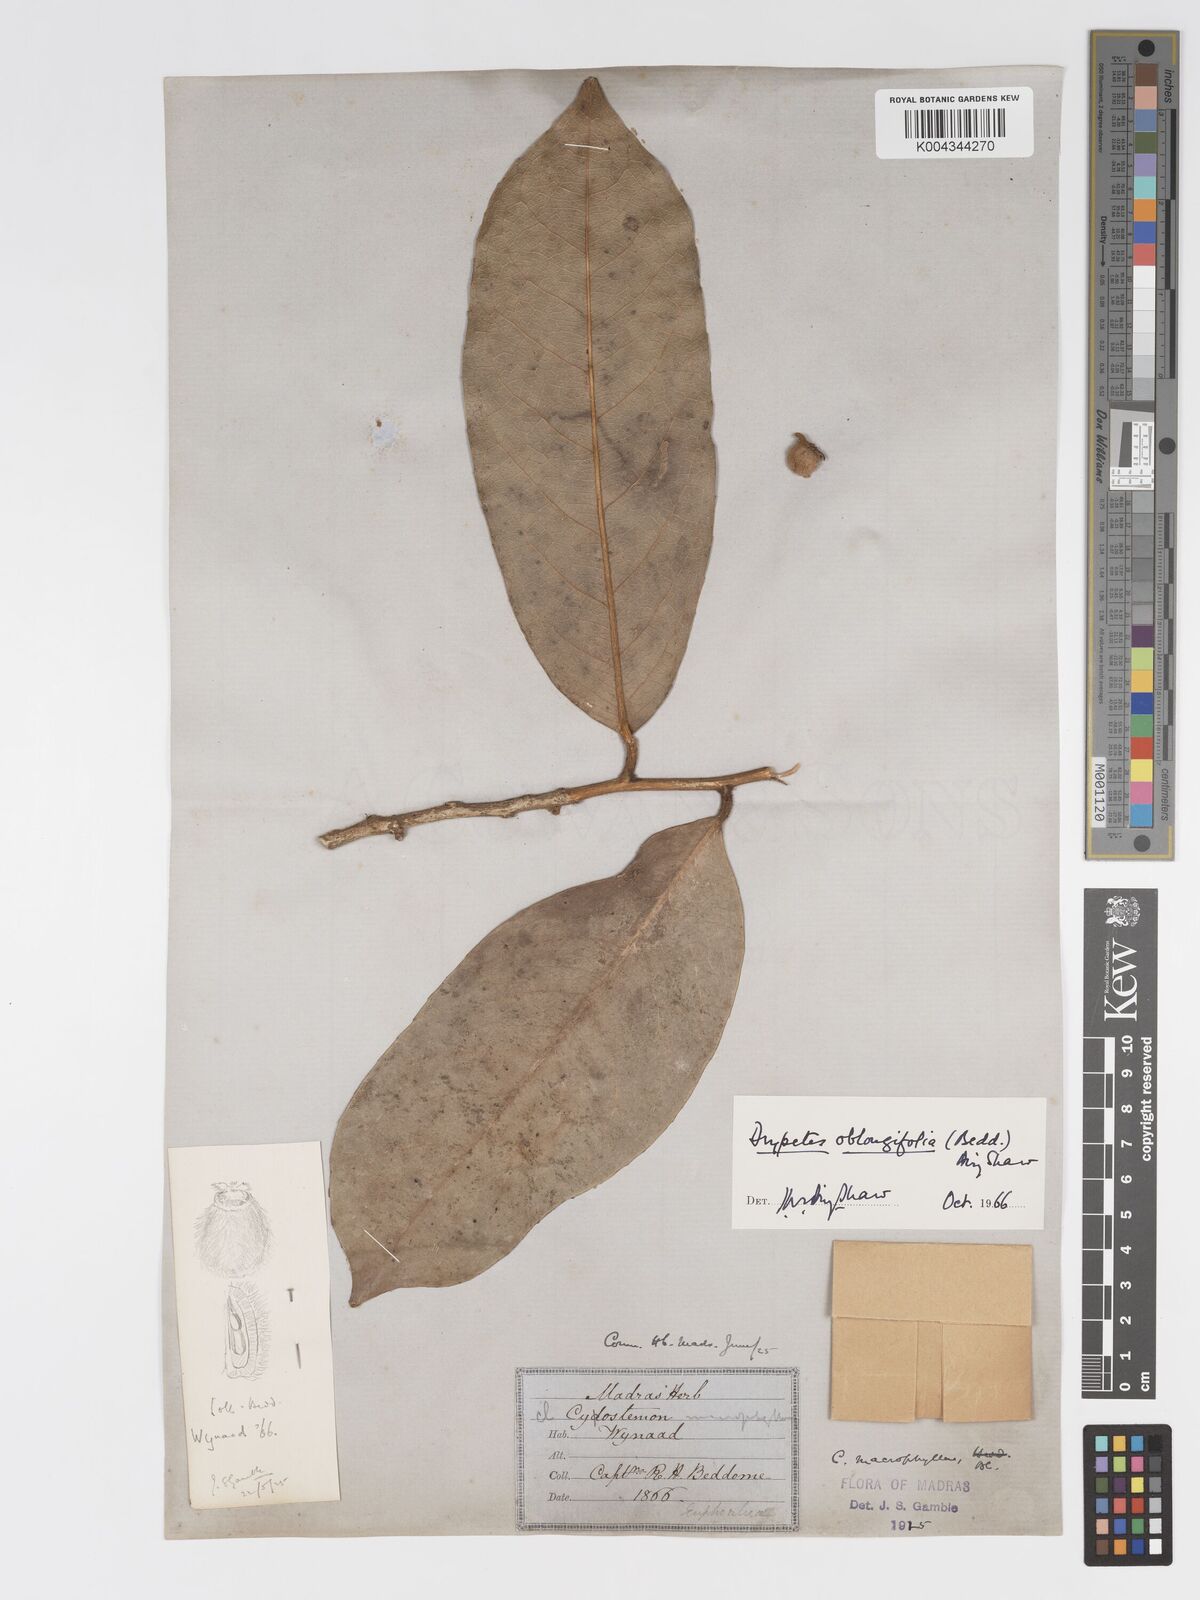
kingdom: Plantae
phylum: Tracheophyta
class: Magnoliopsida
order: Malpighiales
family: Putranjivaceae
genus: Drypetes
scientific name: Drypetes oblongifolia
